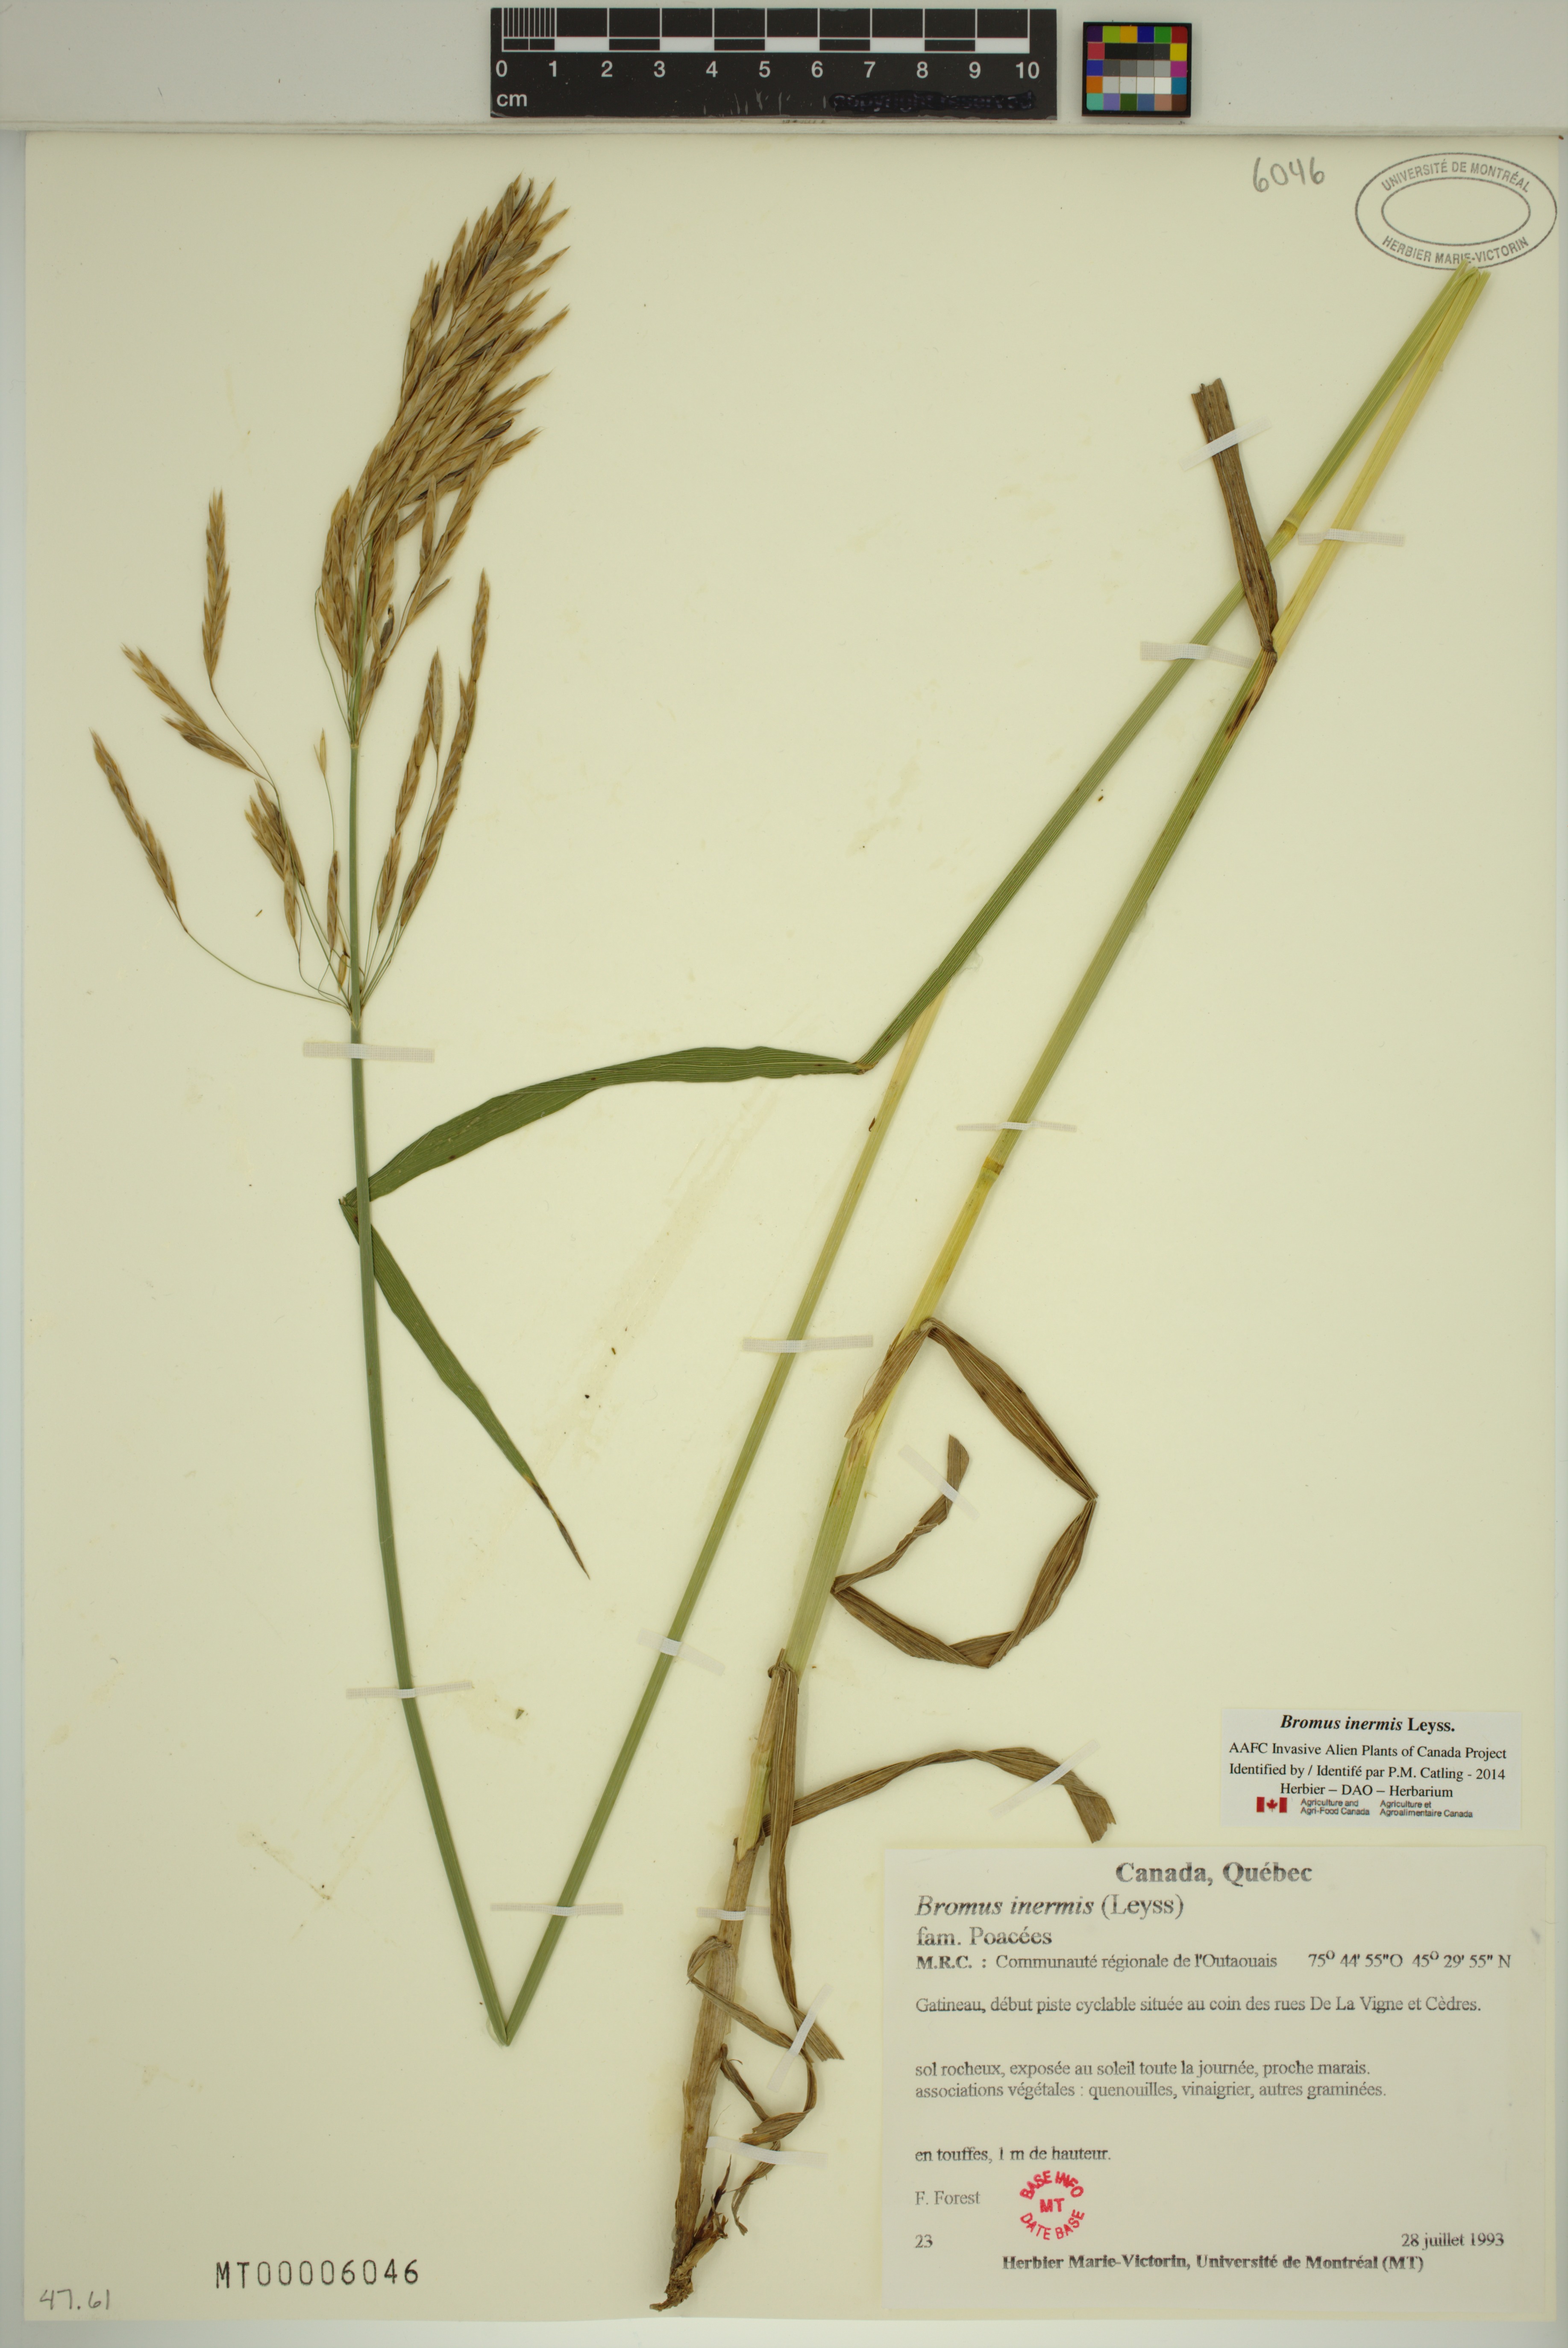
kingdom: Plantae
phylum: Tracheophyta
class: Liliopsida
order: Poales
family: Poaceae
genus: Bromus
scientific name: Bromus inermis
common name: Smooth brome
